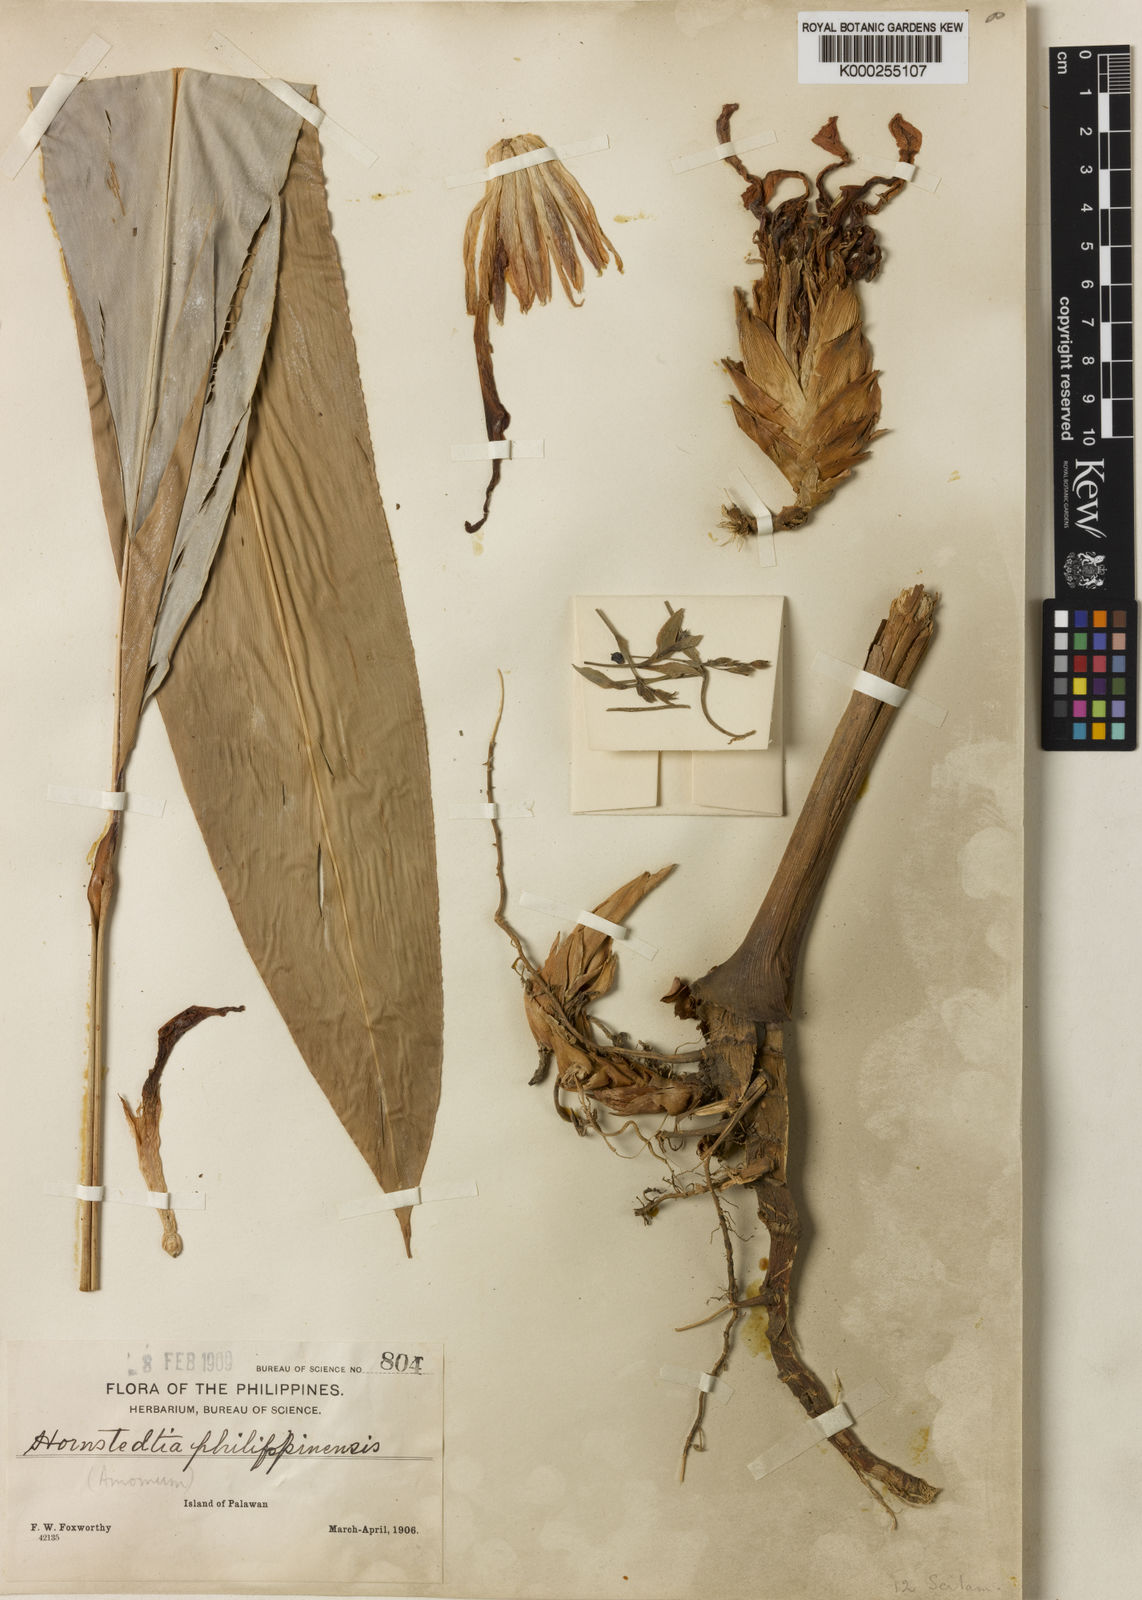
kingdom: Plantae
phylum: Tracheophyta
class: Liliopsida
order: Zingiberales
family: Zingiberaceae
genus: Etlingera
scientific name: Etlingera philippinensis
